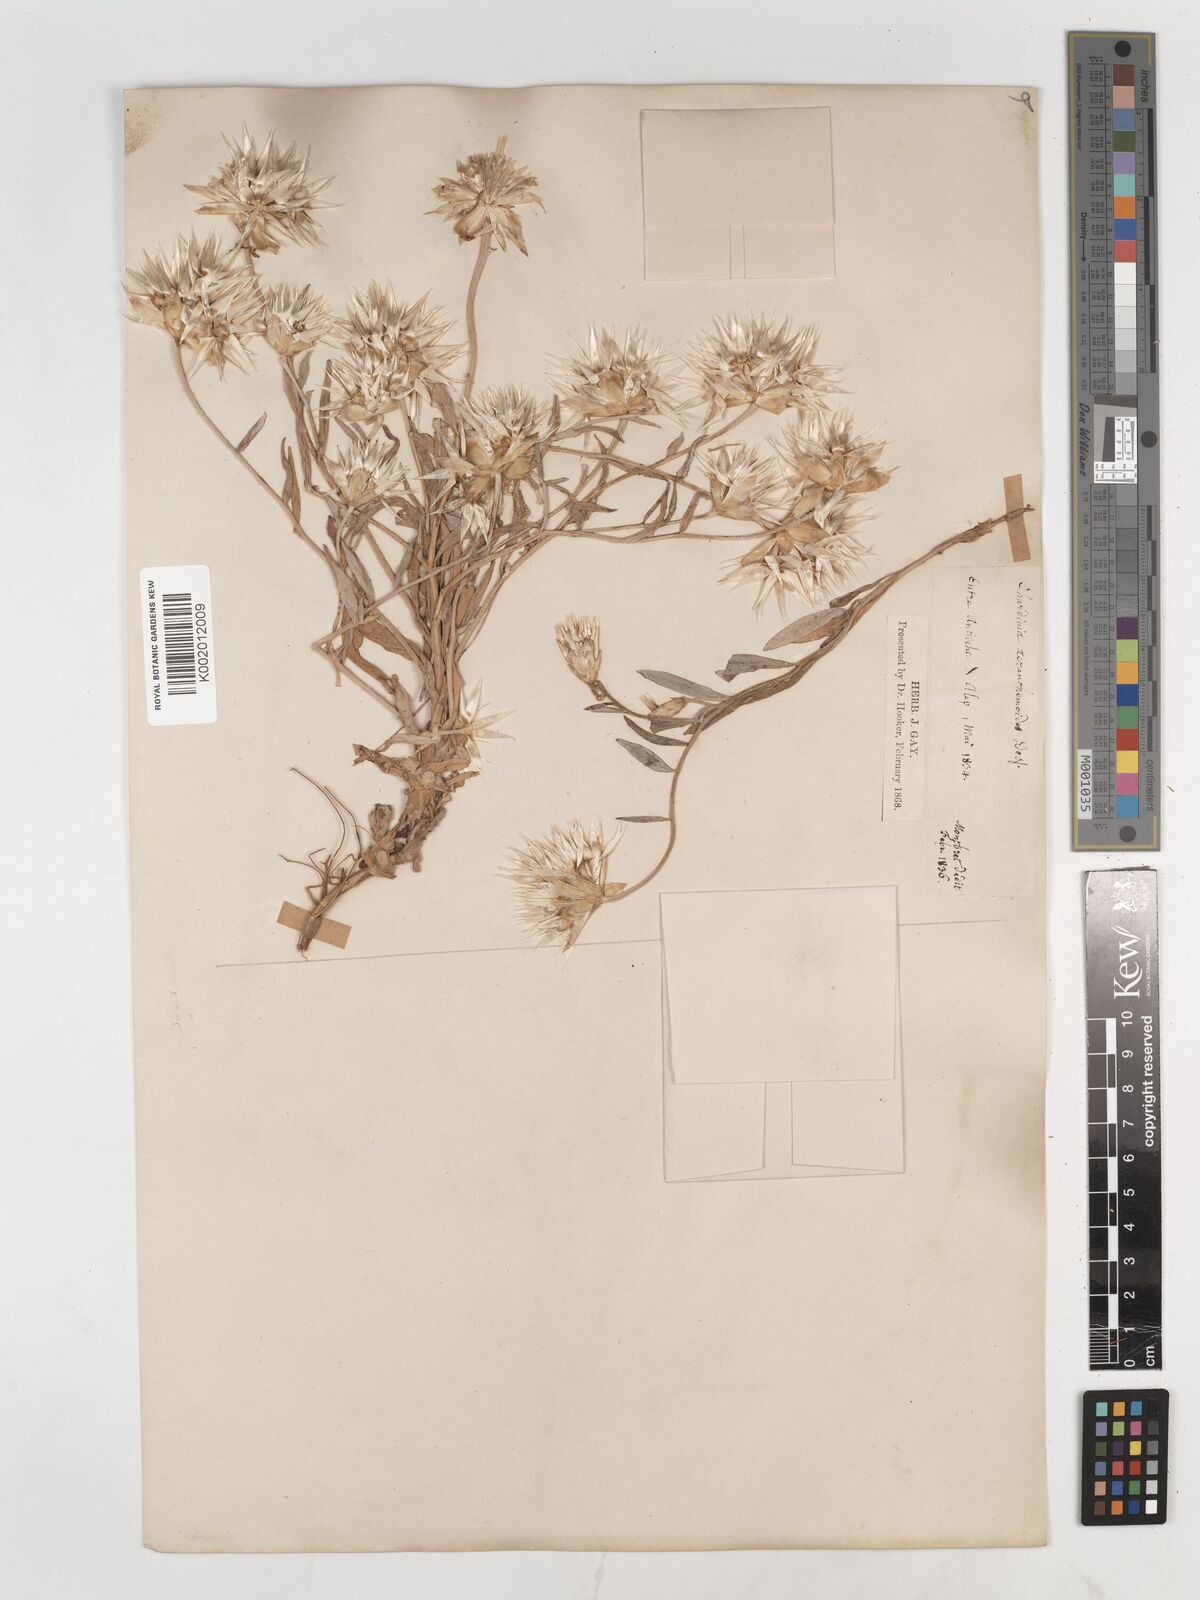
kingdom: Plantae
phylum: Tracheophyta
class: Magnoliopsida
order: Asterales
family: Asteraceae
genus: Chardinia
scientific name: Chardinia orientalis
